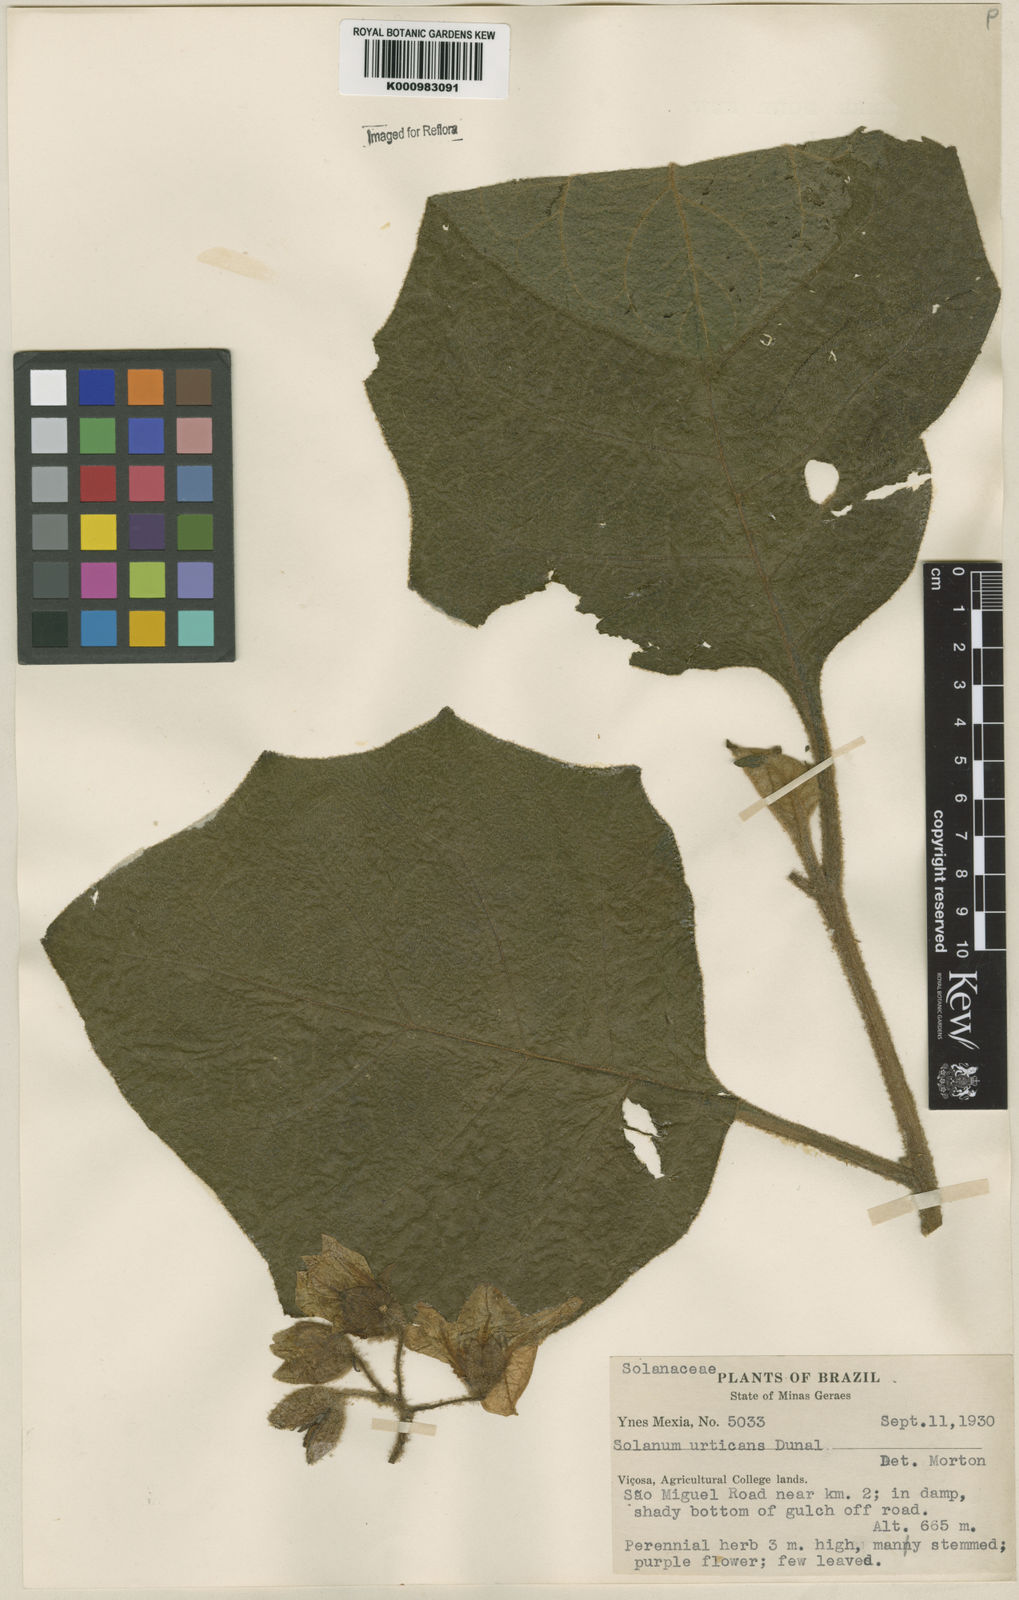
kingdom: Plantae
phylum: Tracheophyta
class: Magnoliopsida
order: Solanales
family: Solanaceae
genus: Solanum
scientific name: Solanum urticans
